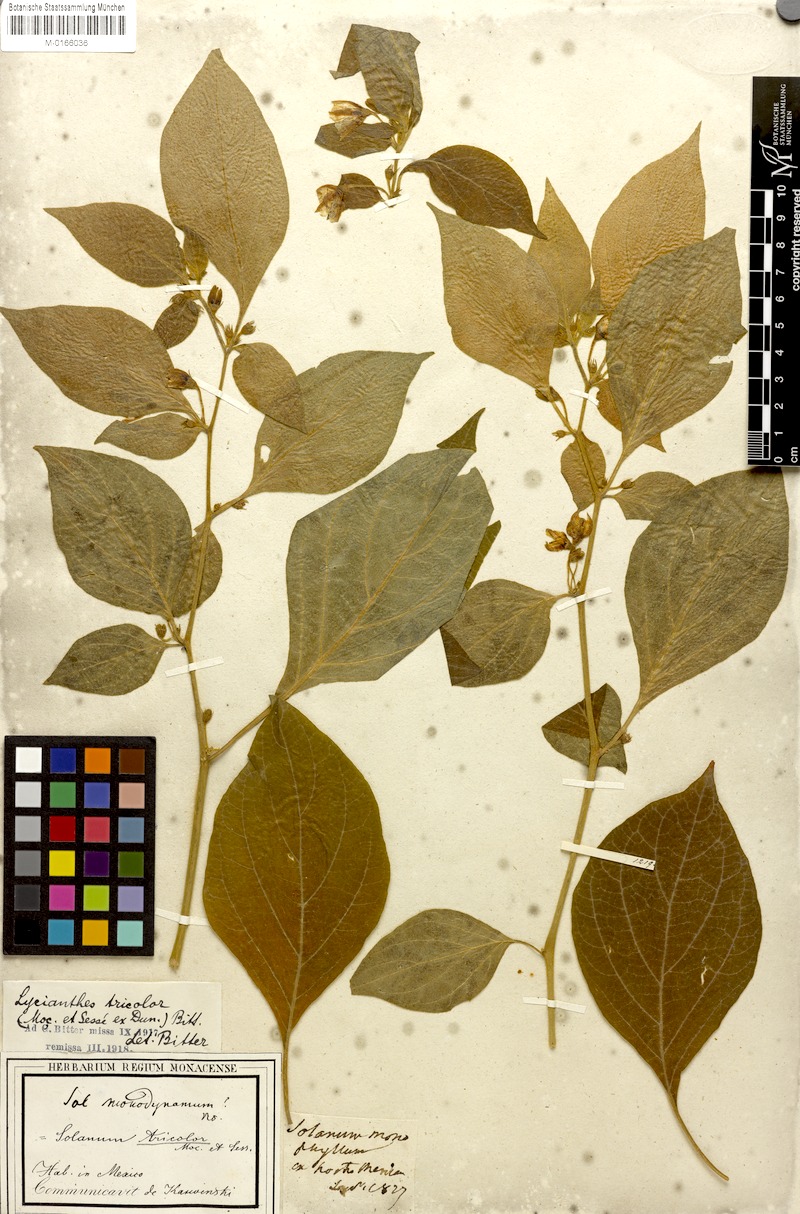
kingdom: Plantae
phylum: Tracheophyta
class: Magnoliopsida
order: Solanales
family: Solanaceae
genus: Lycianthes
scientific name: Lycianthes tricolor
